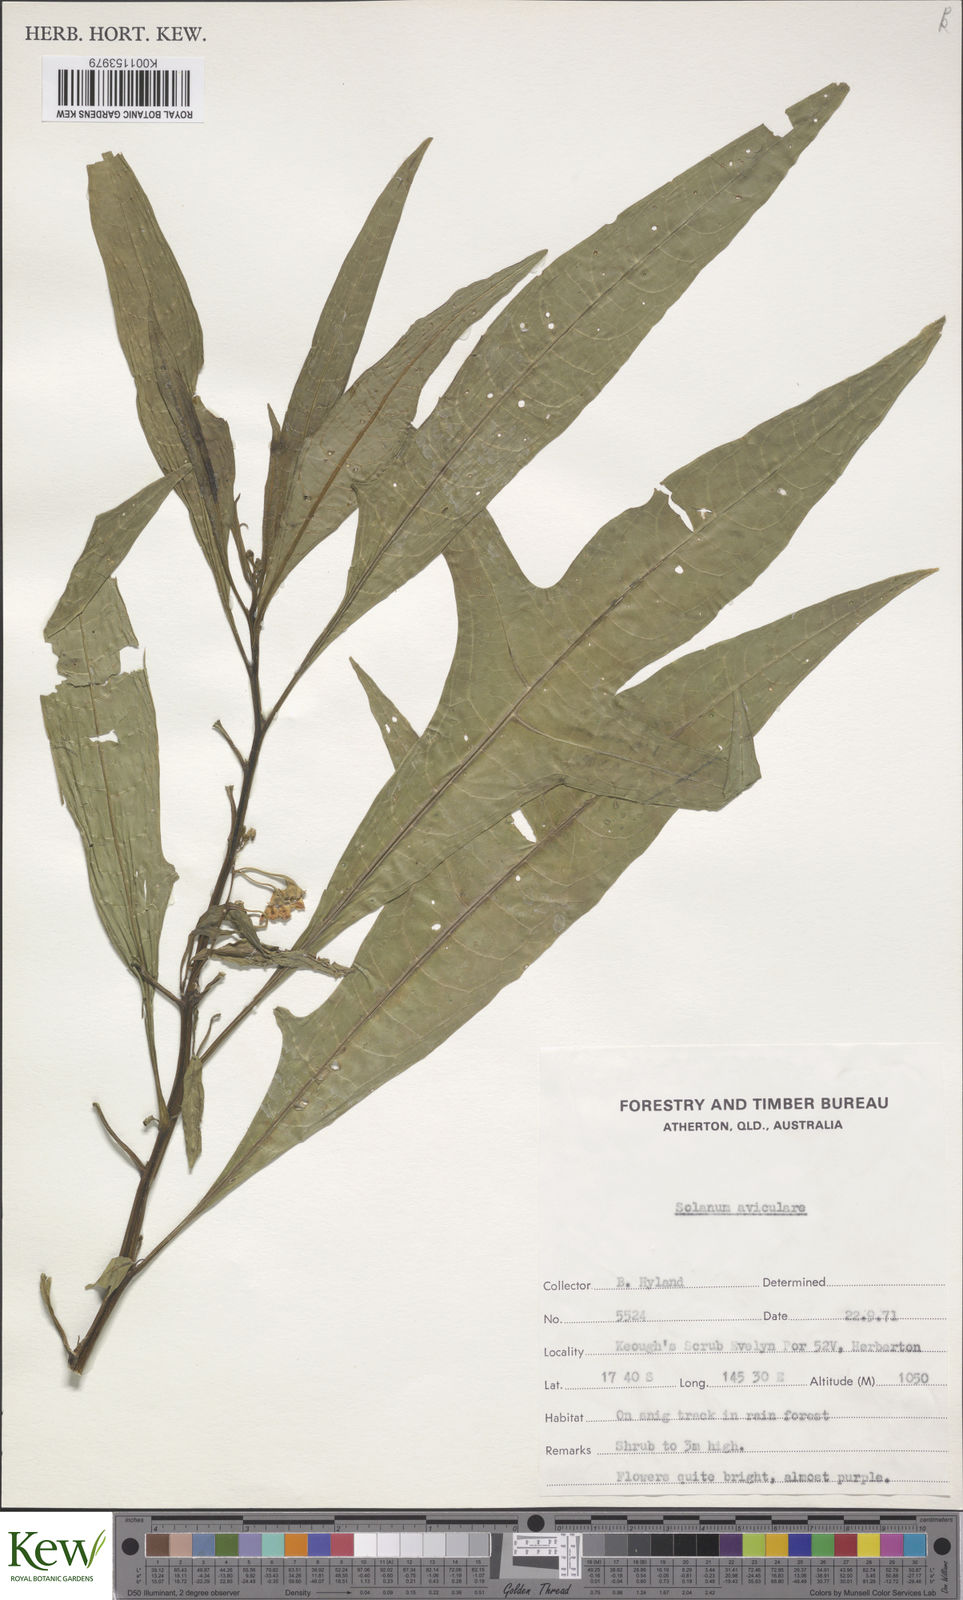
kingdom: Plantae
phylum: Tracheophyta
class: Magnoliopsida
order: Solanales
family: Solanaceae
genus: Solanum
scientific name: Solanum aviculare
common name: New zealand nightshade
